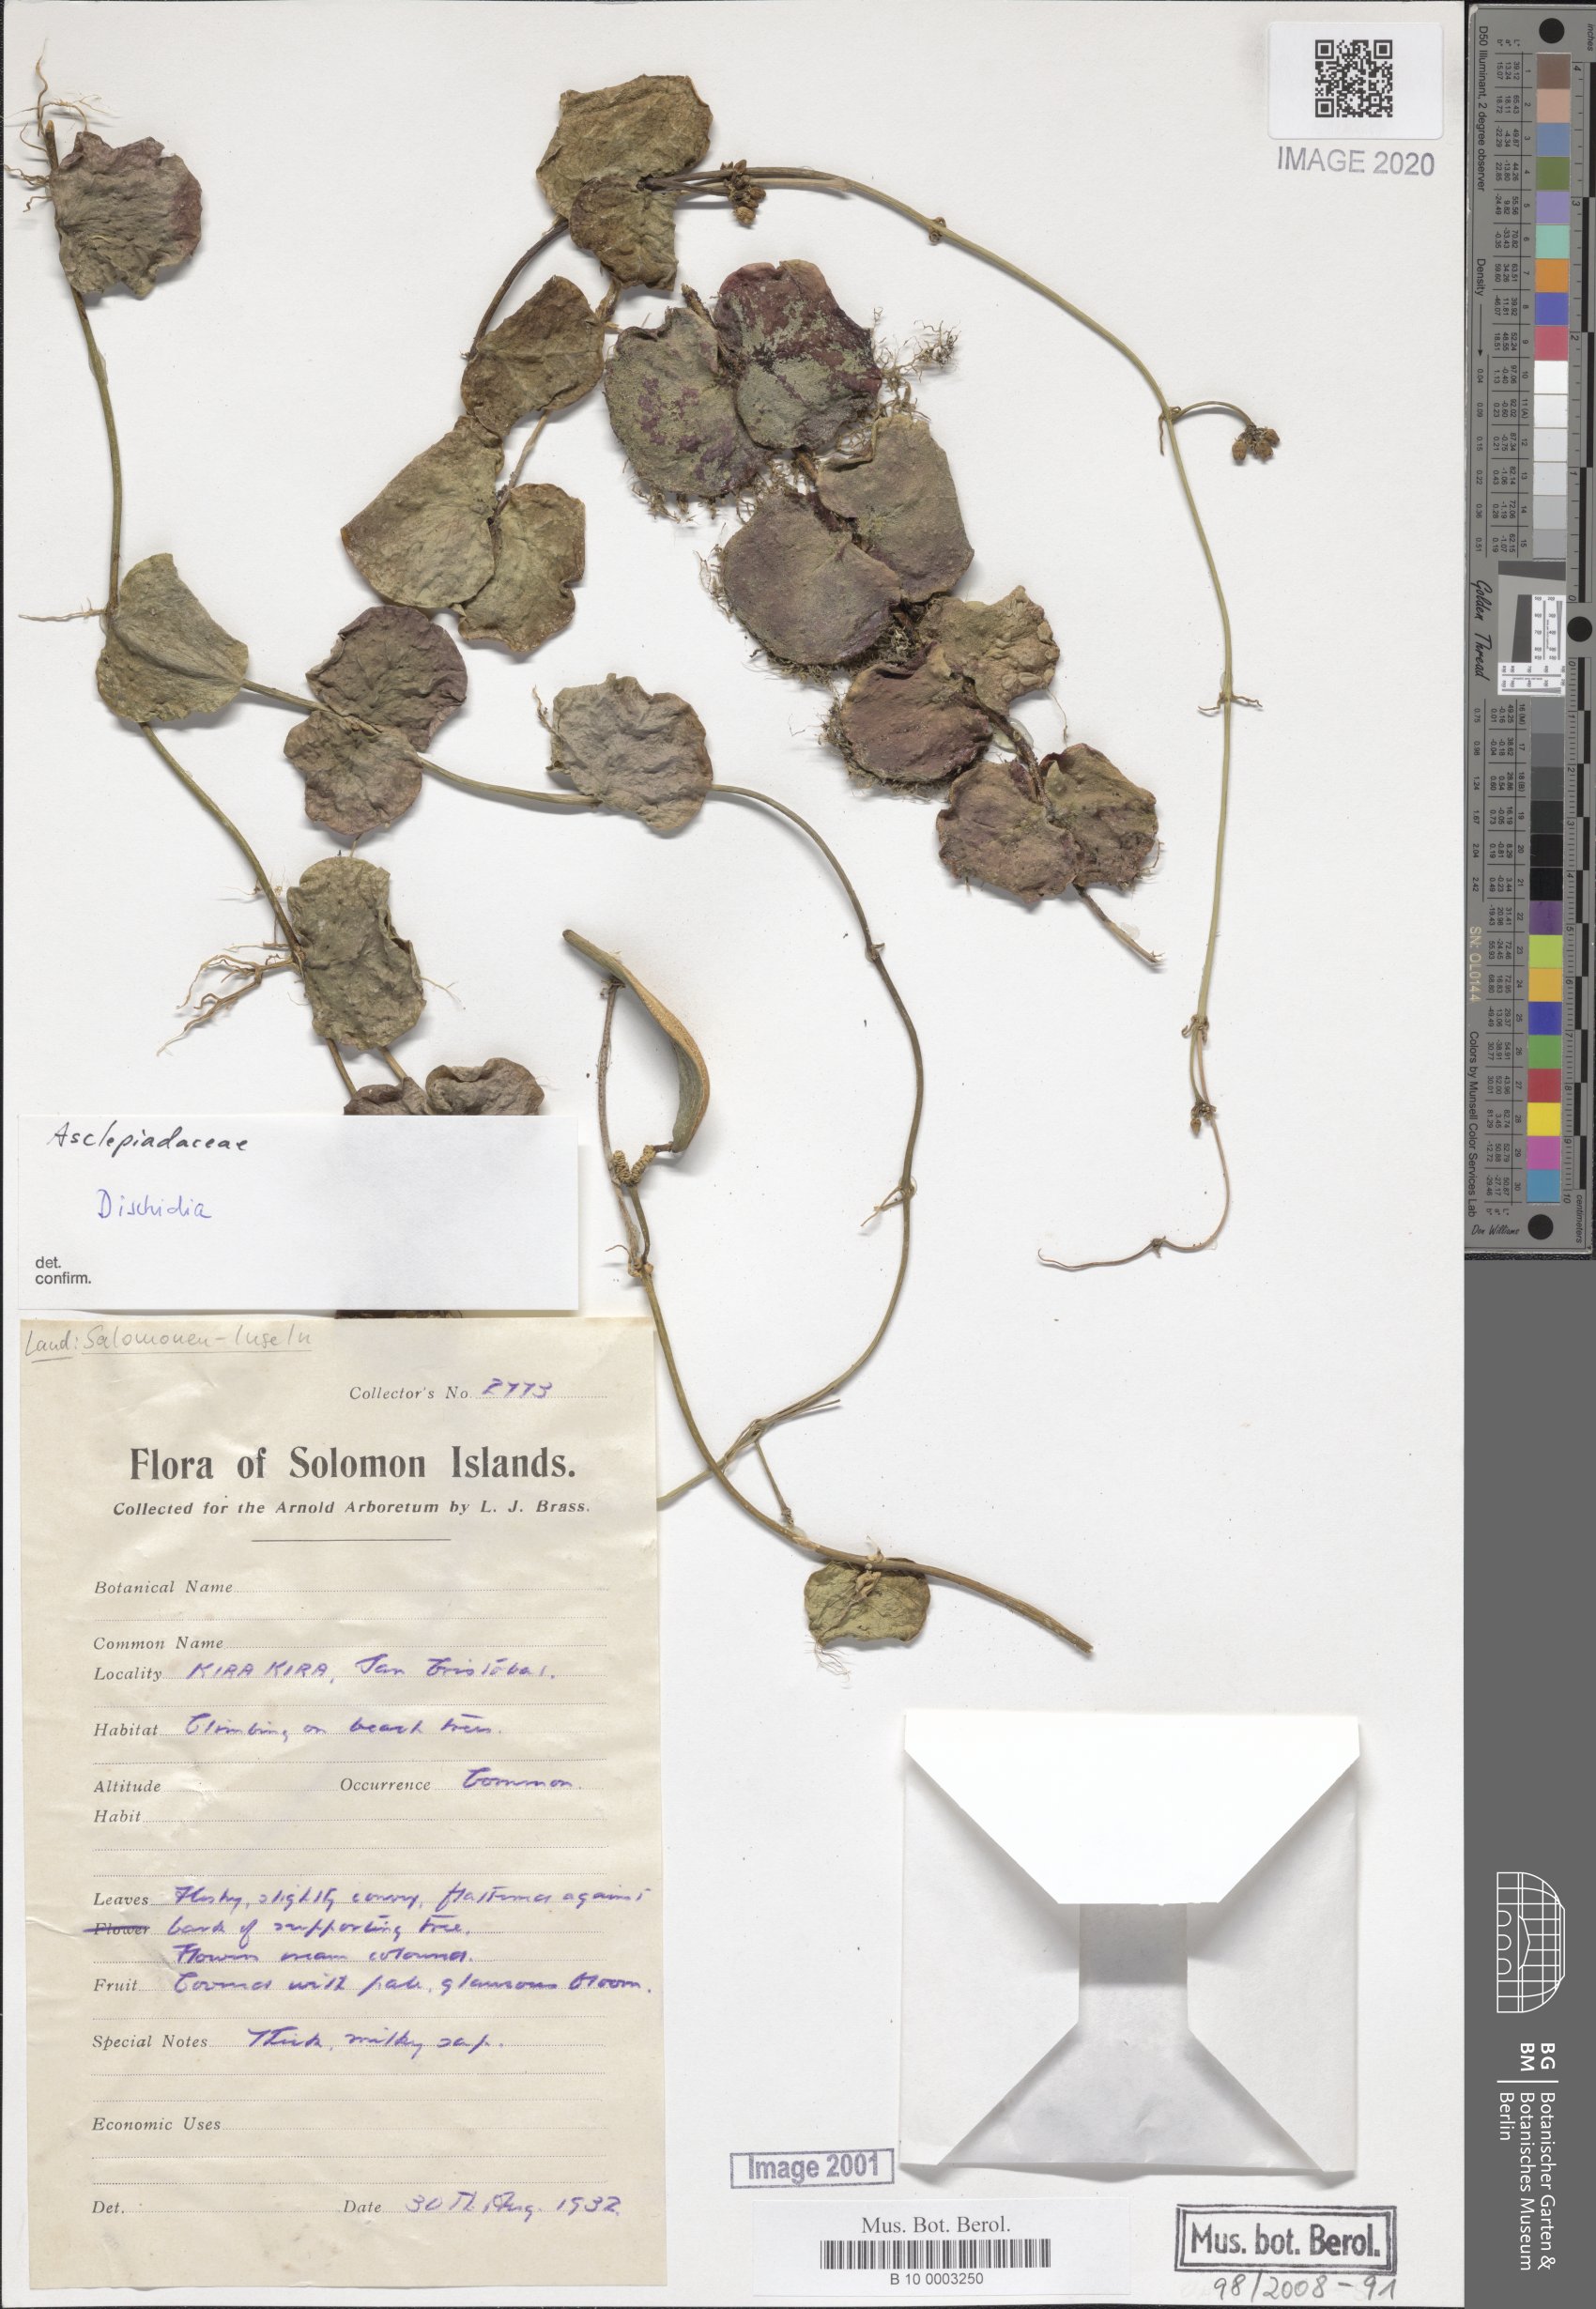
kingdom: Plantae
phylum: Tracheophyta
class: Magnoliopsida
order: Gentianales
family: Apocynaceae
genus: Dischidia
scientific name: Dischidia
